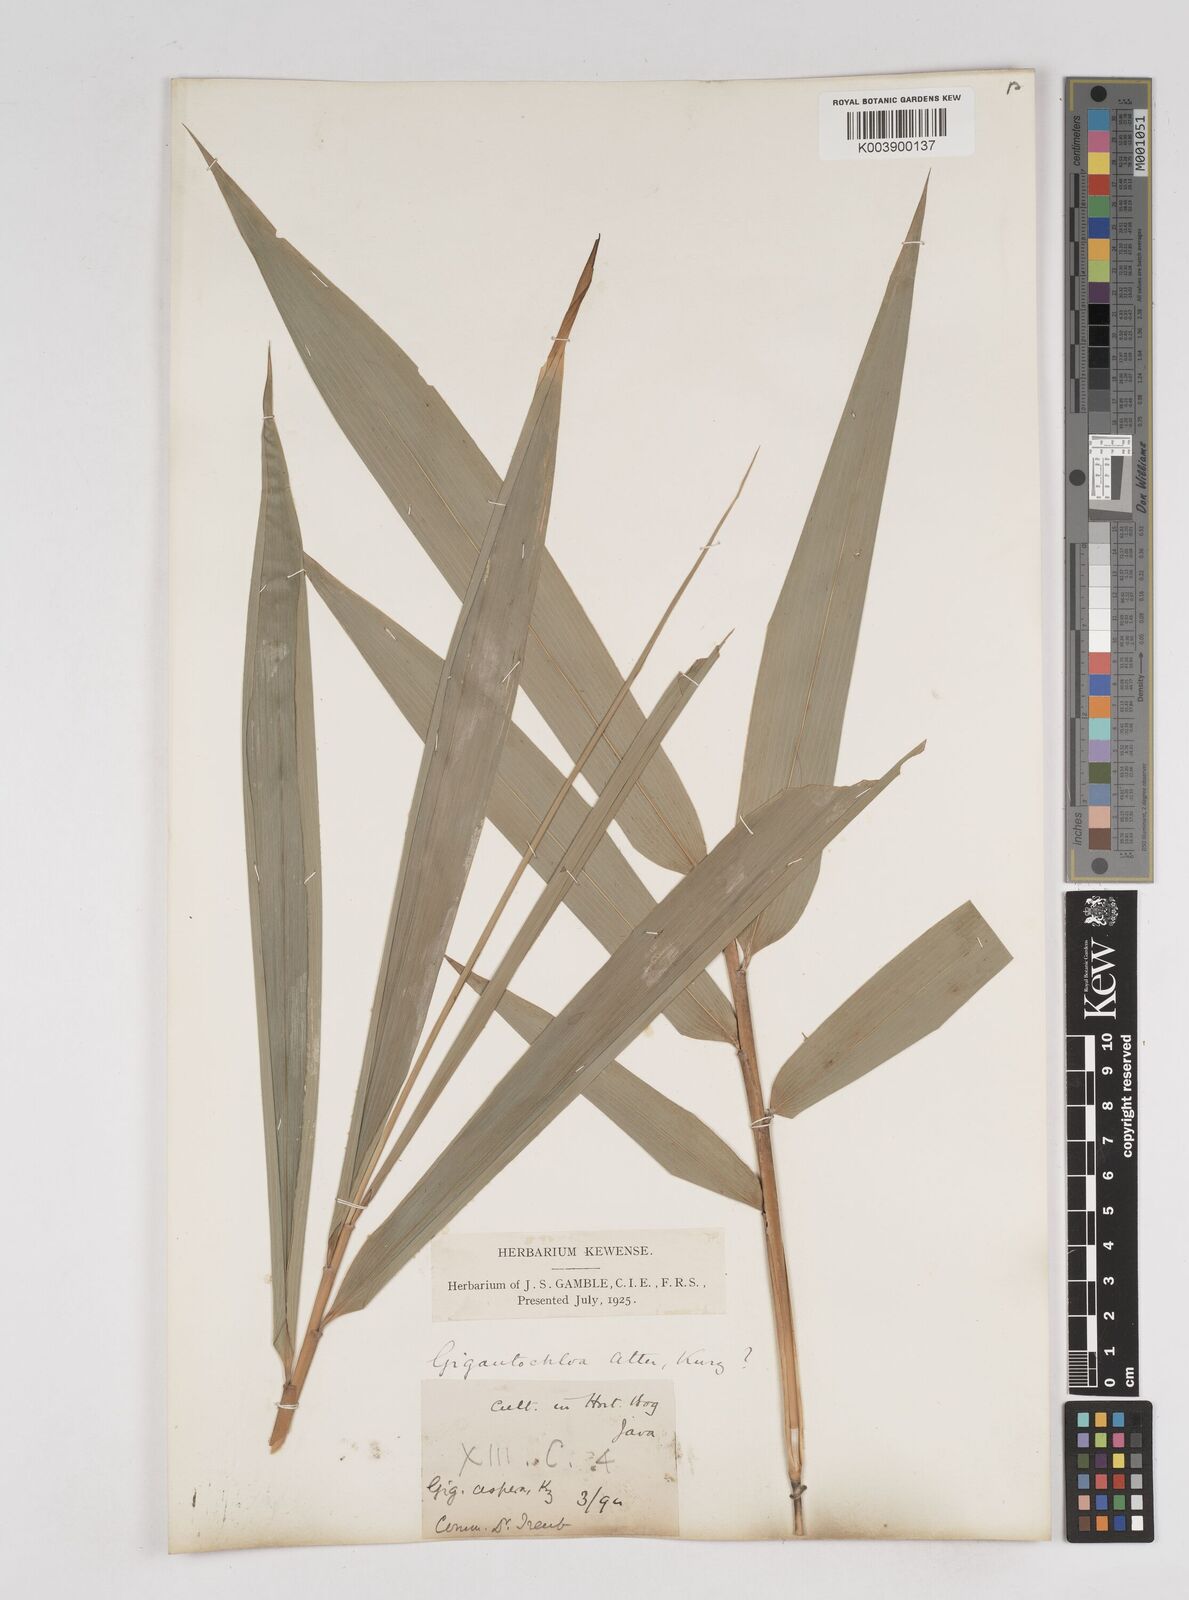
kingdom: Plantae
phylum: Tracheophyta
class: Liliopsida
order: Poales
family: Poaceae
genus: Gigantochloa
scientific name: Gigantochloa atter
